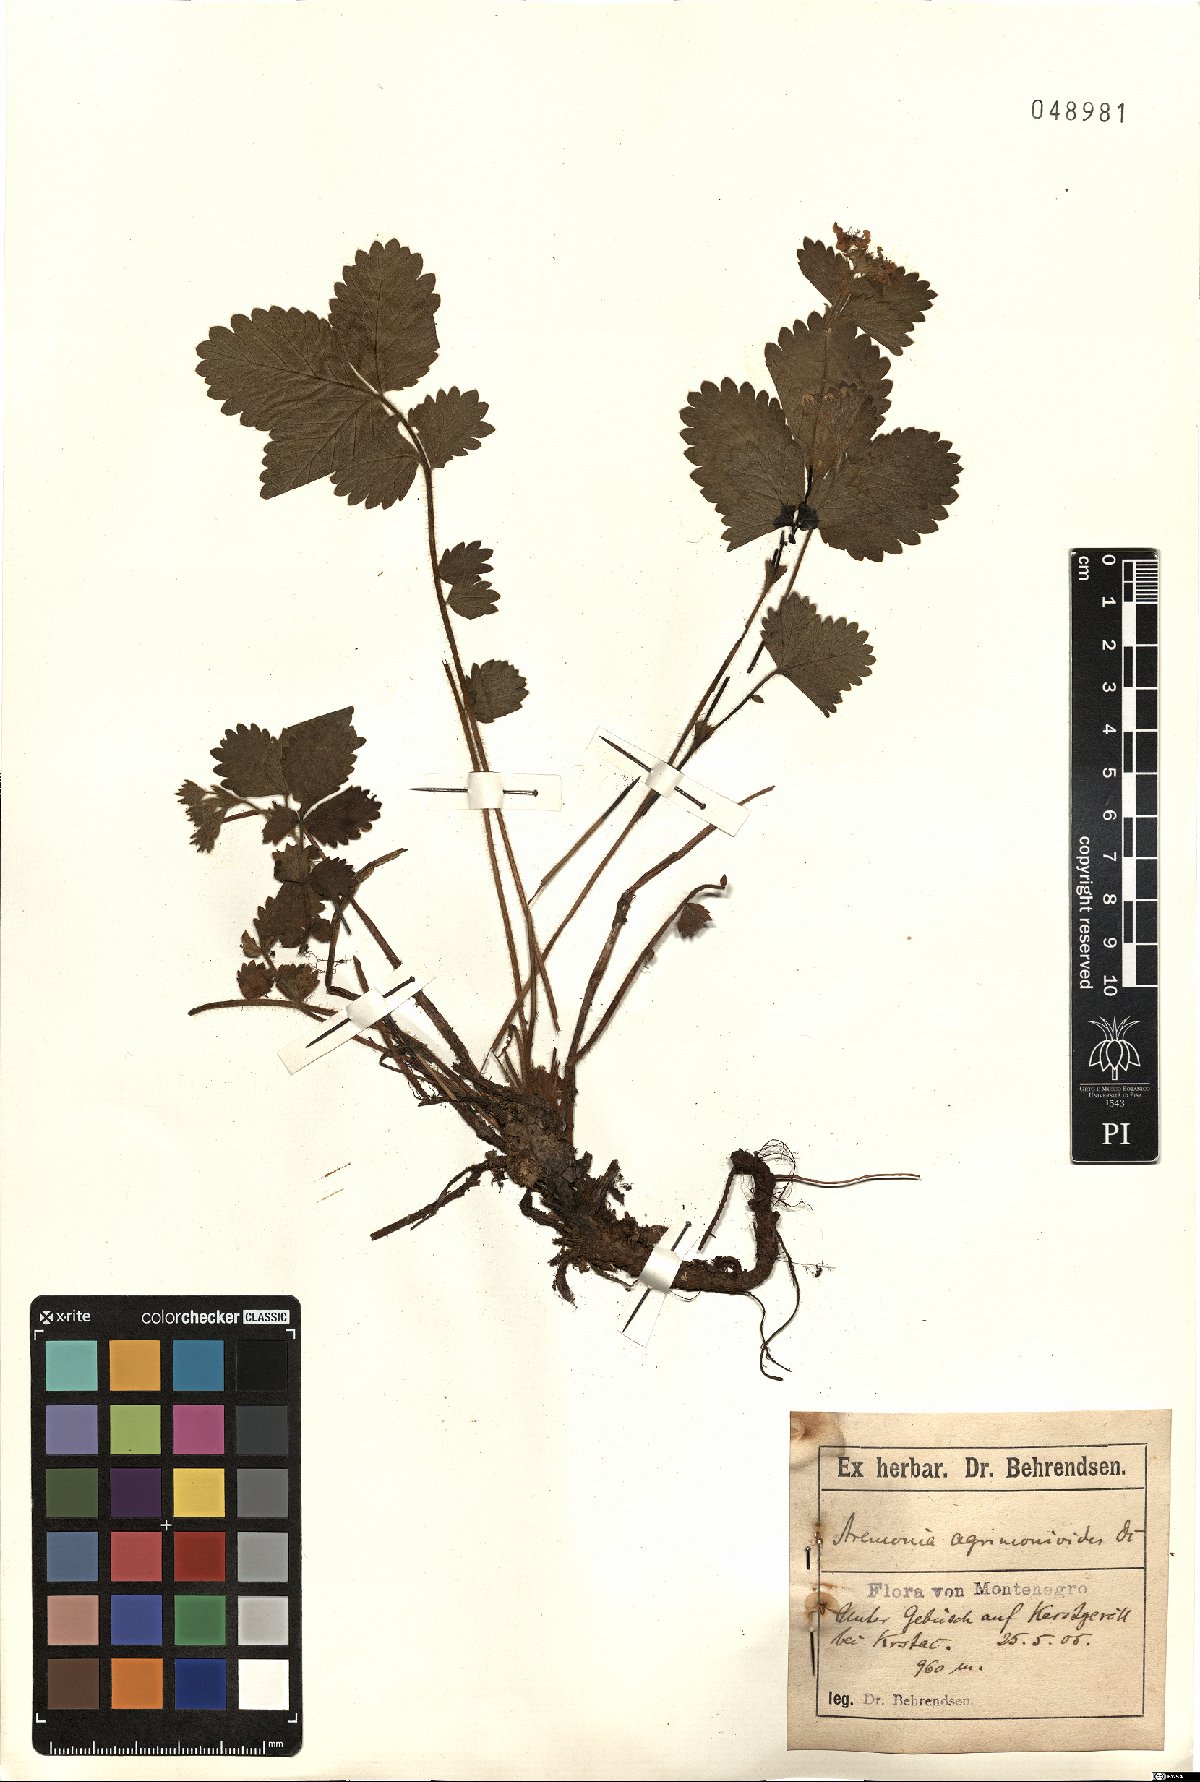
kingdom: Plantae
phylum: Tracheophyta
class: Magnoliopsida
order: Rosales
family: Rosaceae
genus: Aremonia
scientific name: Aremonia agrimonoides
